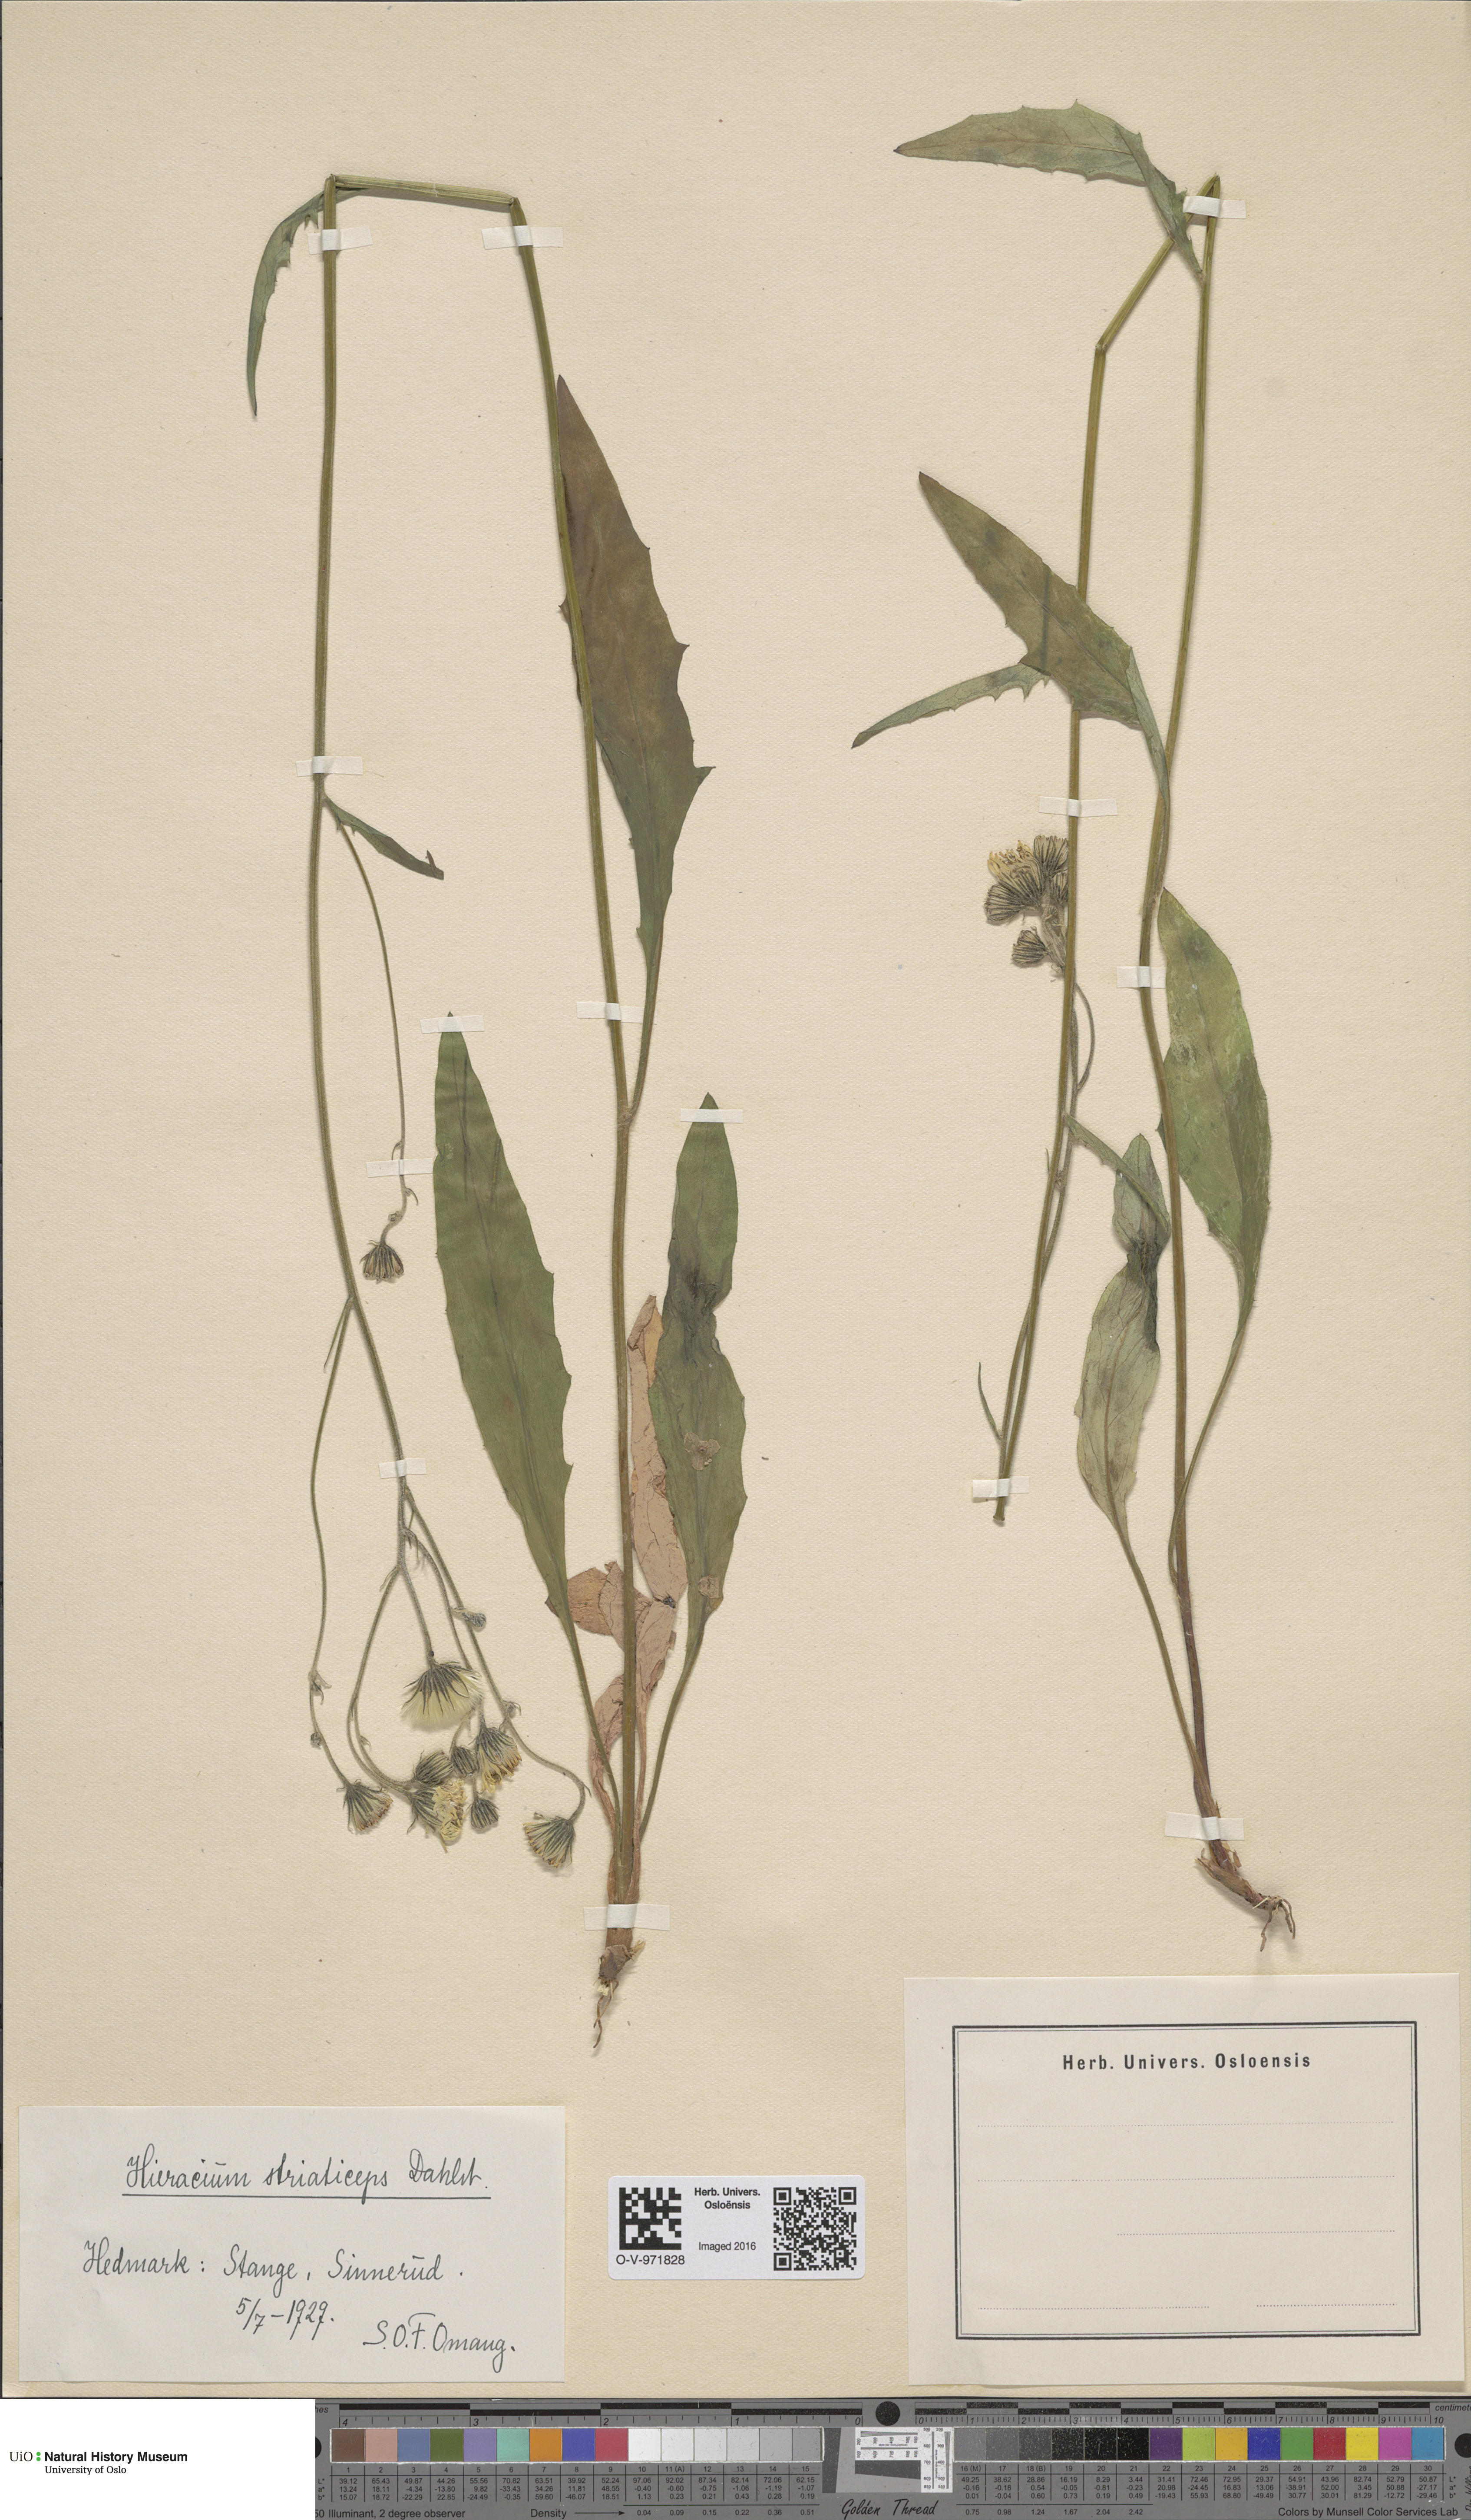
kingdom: Plantae
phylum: Tracheophyta
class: Magnoliopsida
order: Asterales
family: Asteraceae
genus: Hieracium
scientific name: Hieracium
